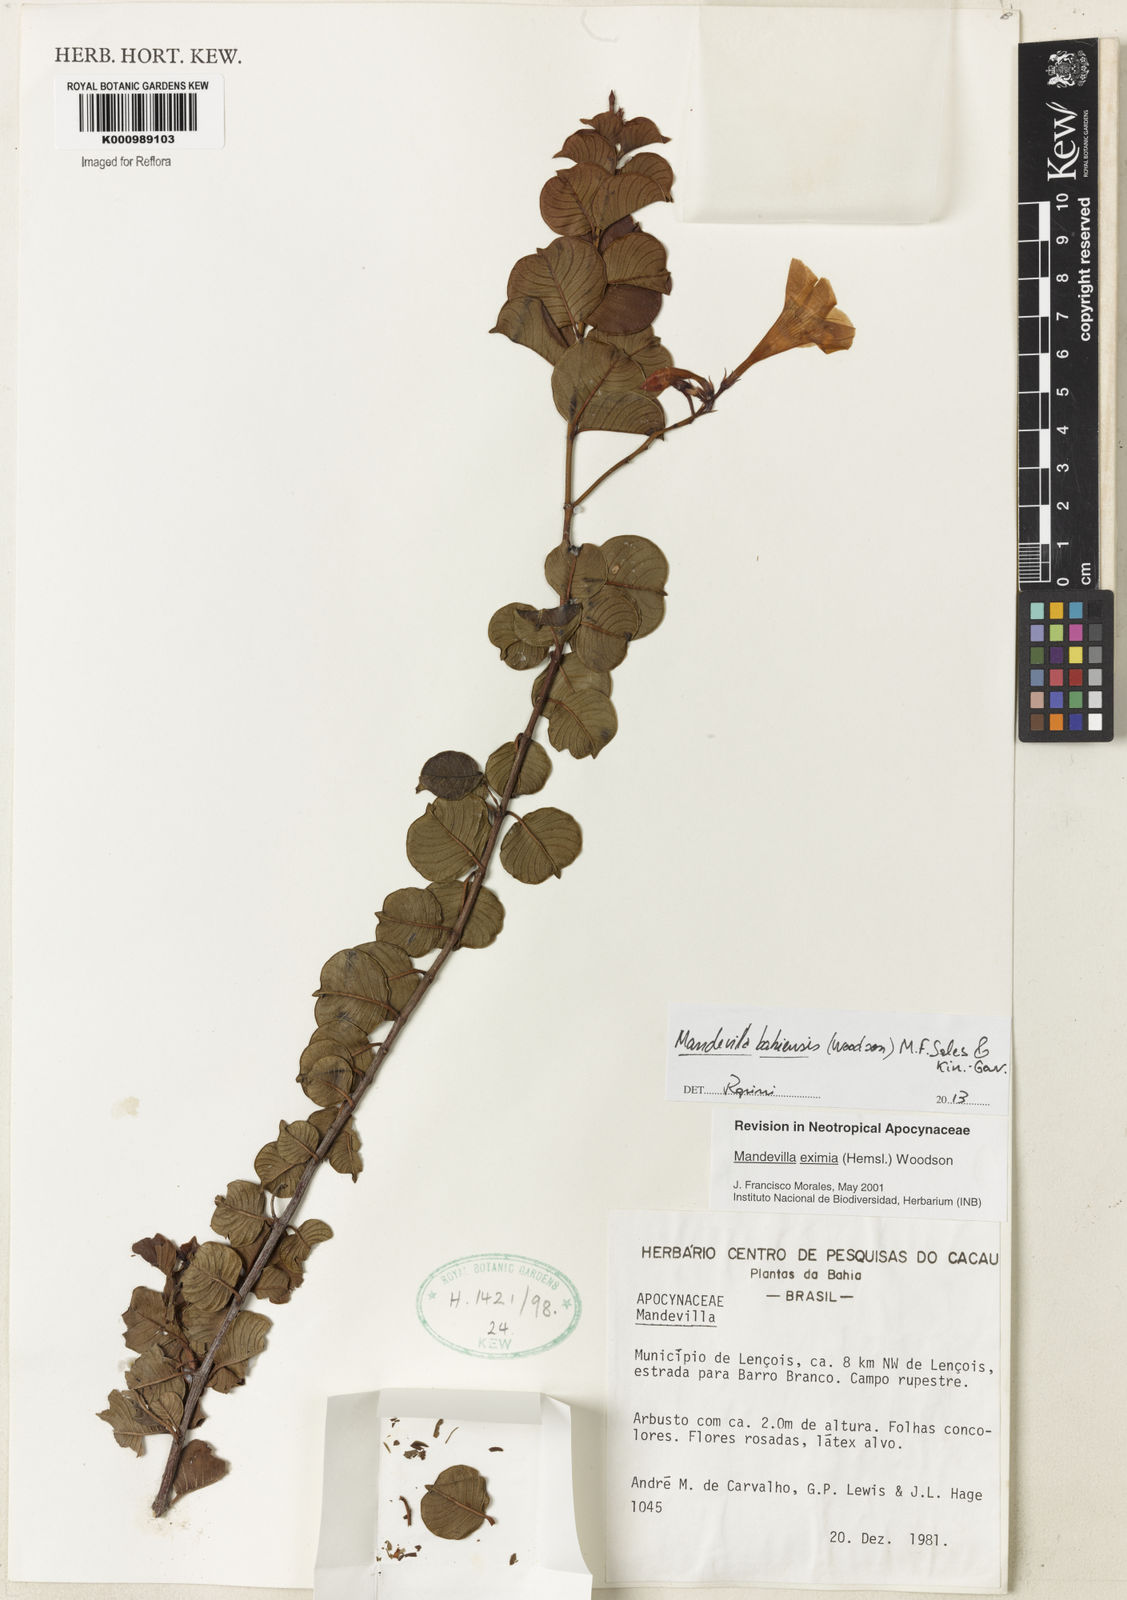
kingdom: Plantae
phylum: Tracheophyta
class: Magnoliopsida
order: Gentianales
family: Apocynaceae
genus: Mandevilla
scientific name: Mandevilla eximia
